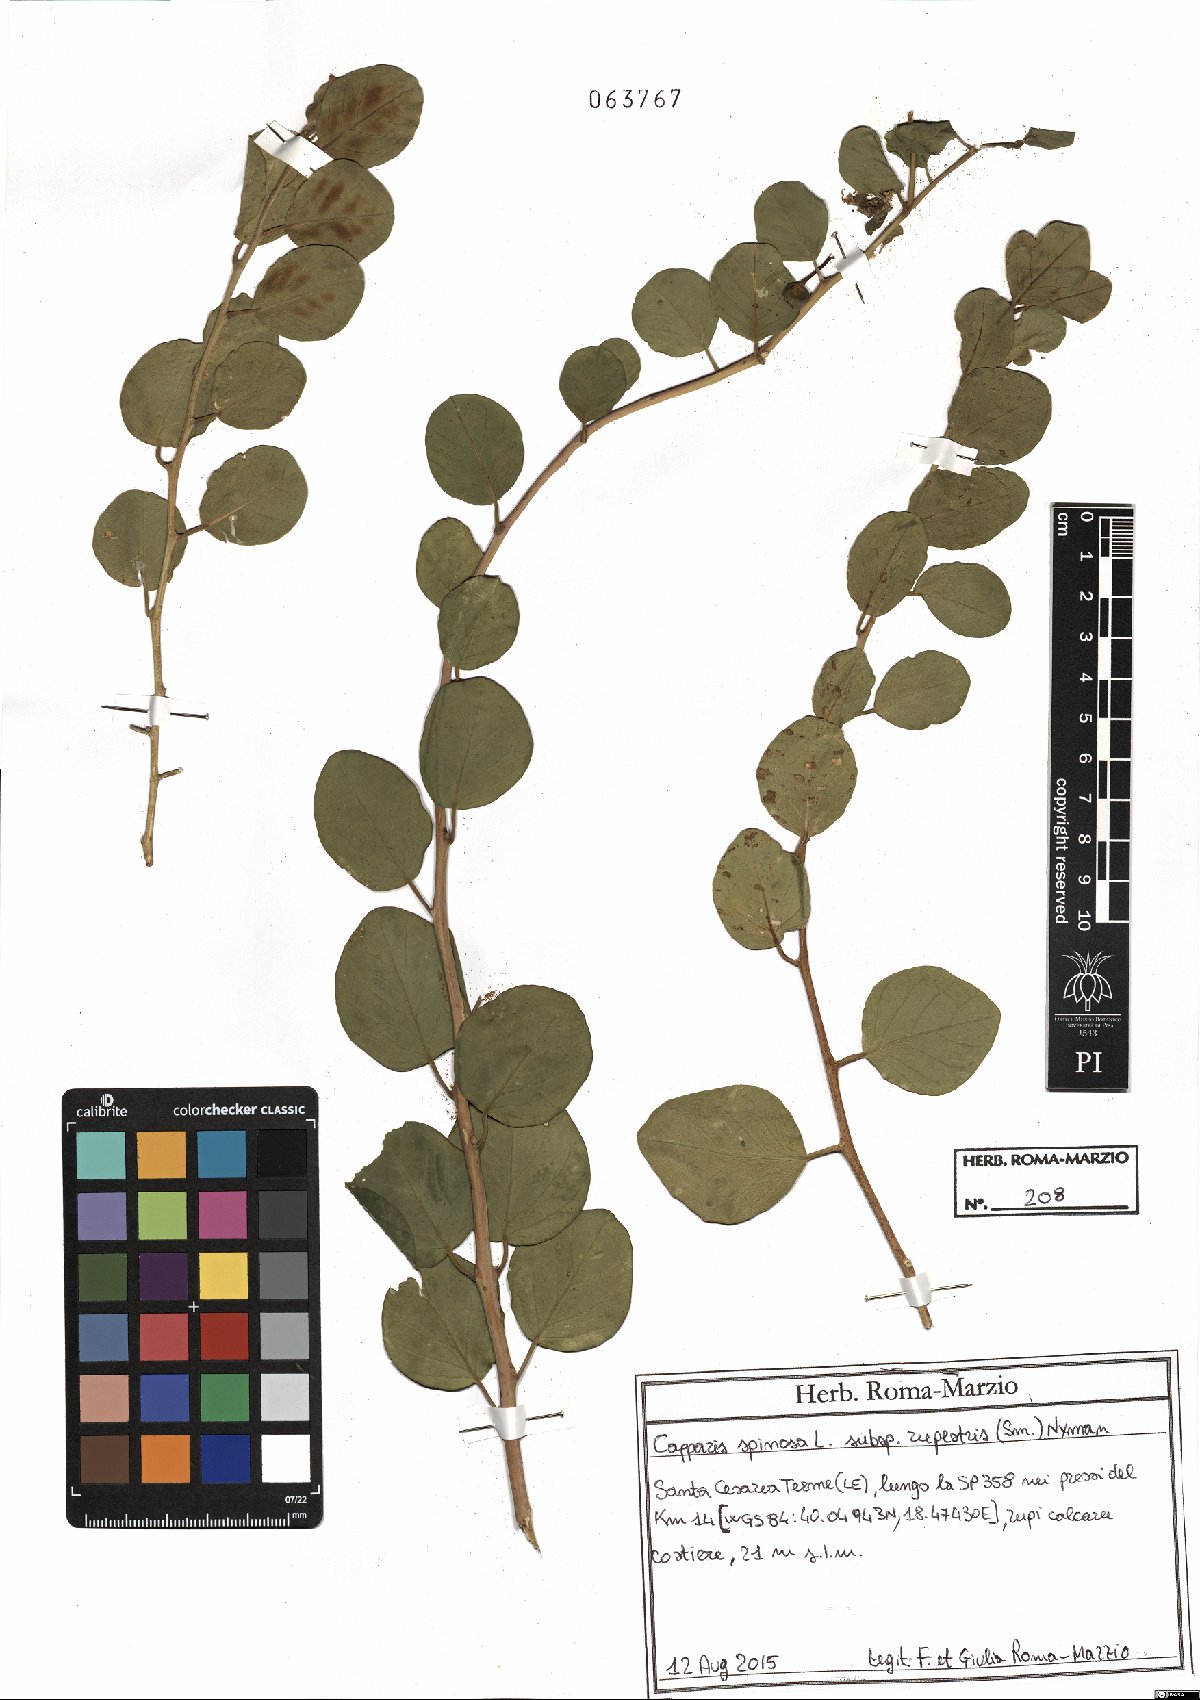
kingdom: Plantae
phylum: Tracheophyta
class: Magnoliopsida
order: Brassicales
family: Capparaceae
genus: Capparis
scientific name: Capparis spinosa
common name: Caper
